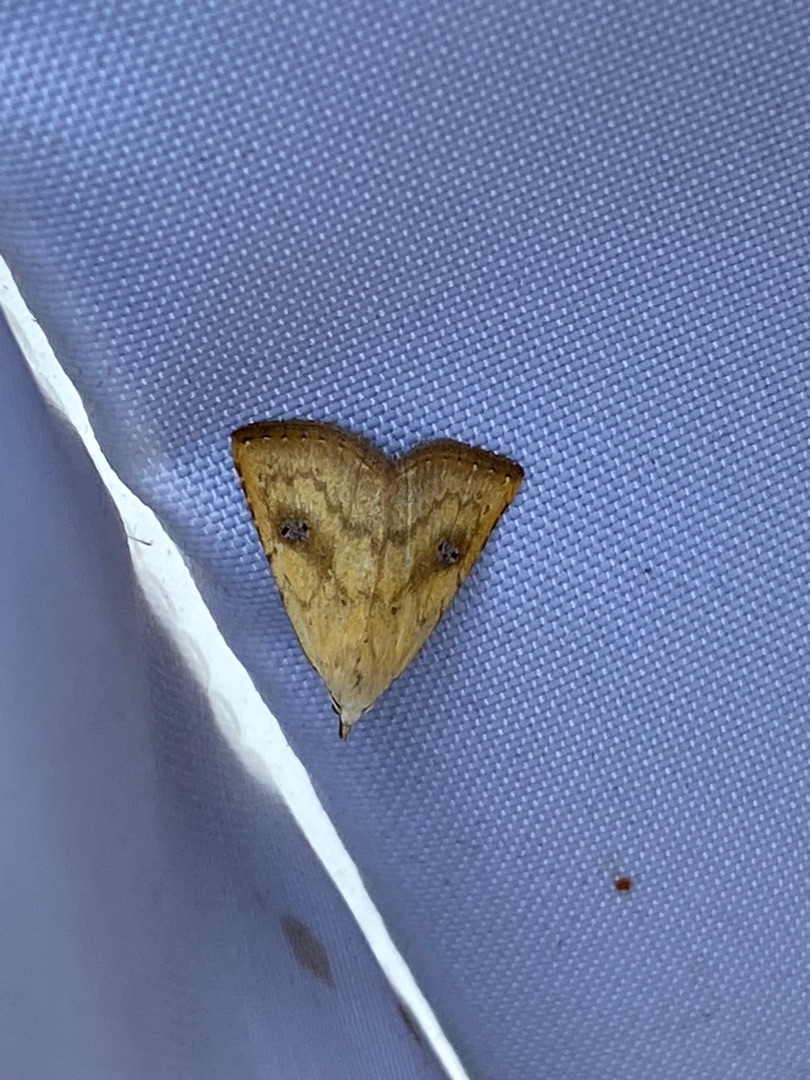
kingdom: Animalia
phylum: Arthropoda
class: Insecta
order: Lepidoptera
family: Erebidae
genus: Rivula
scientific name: Rivula sericealis
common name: Lille å-ugle
